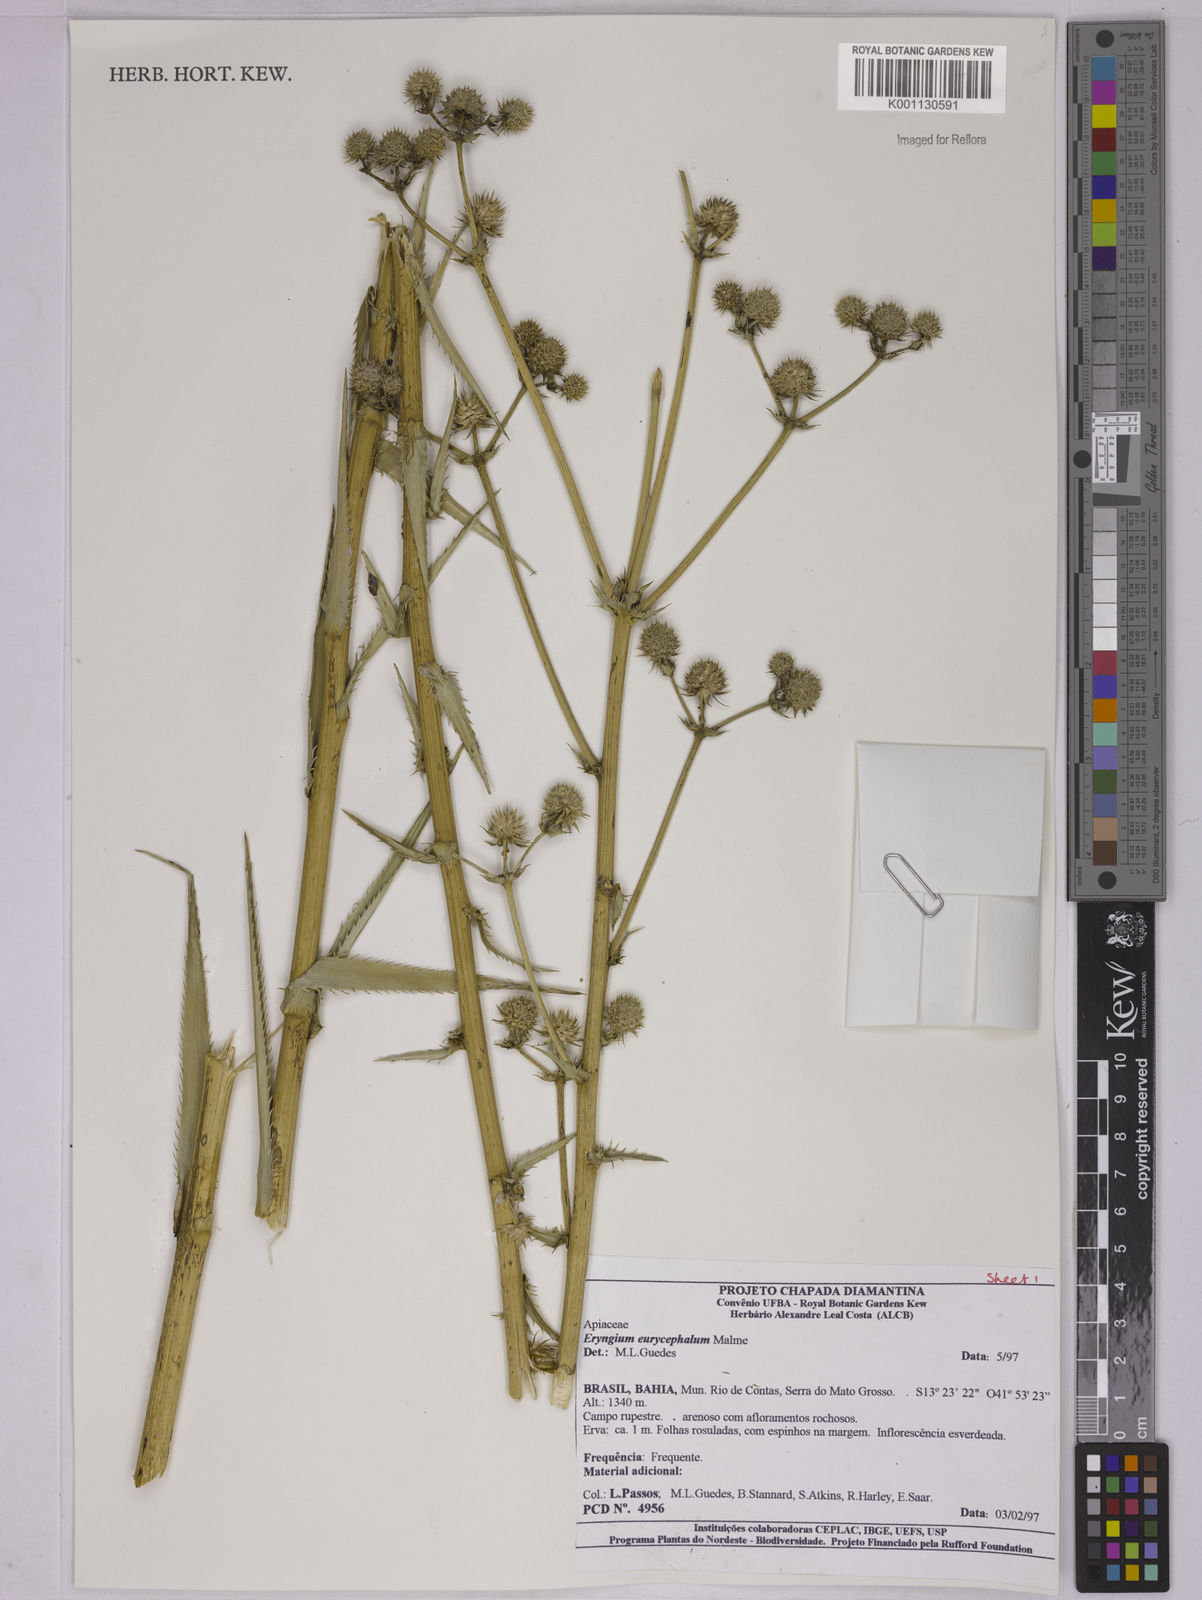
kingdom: Plantae
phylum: Tracheophyta
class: Magnoliopsida
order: Apiales
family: Apiaceae
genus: Eryngium
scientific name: Eryngium eurycephalum
